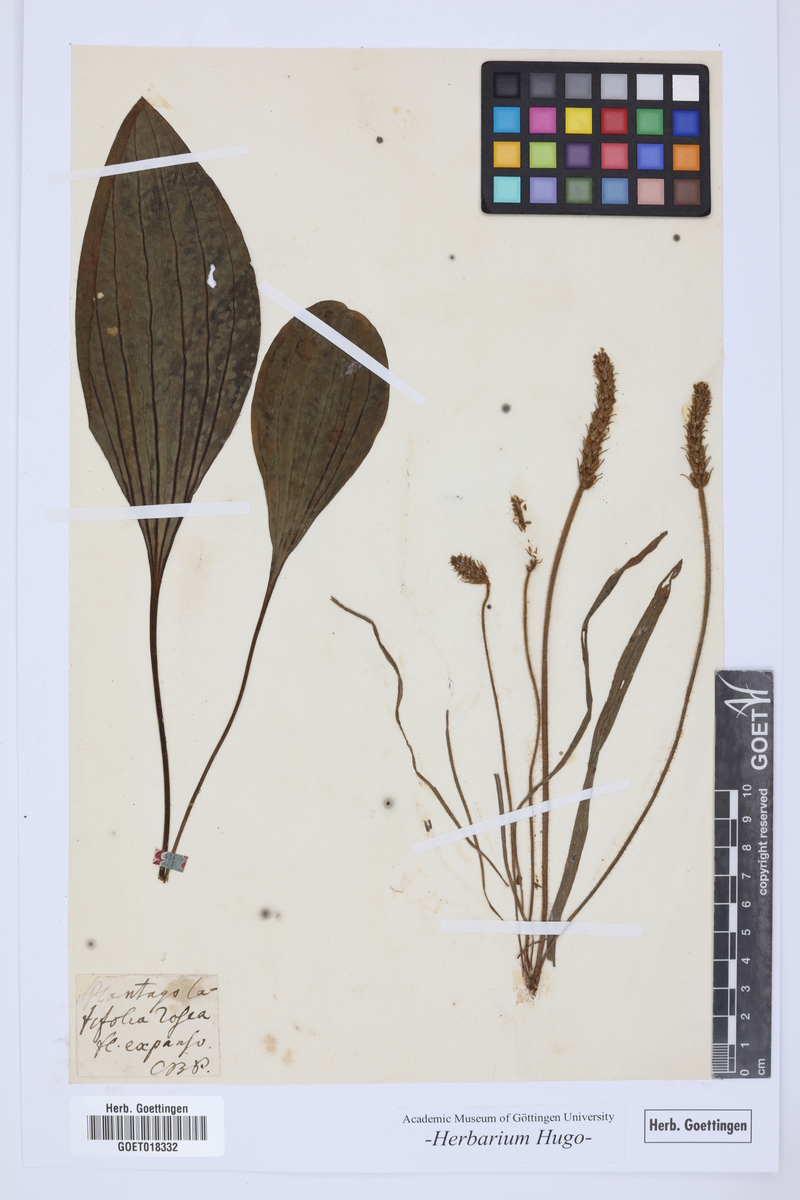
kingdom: Plantae
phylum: Tracheophyta
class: Magnoliopsida
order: Lamiales
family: Plantaginaceae
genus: Plantago
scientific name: Plantago major
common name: Common plantain
